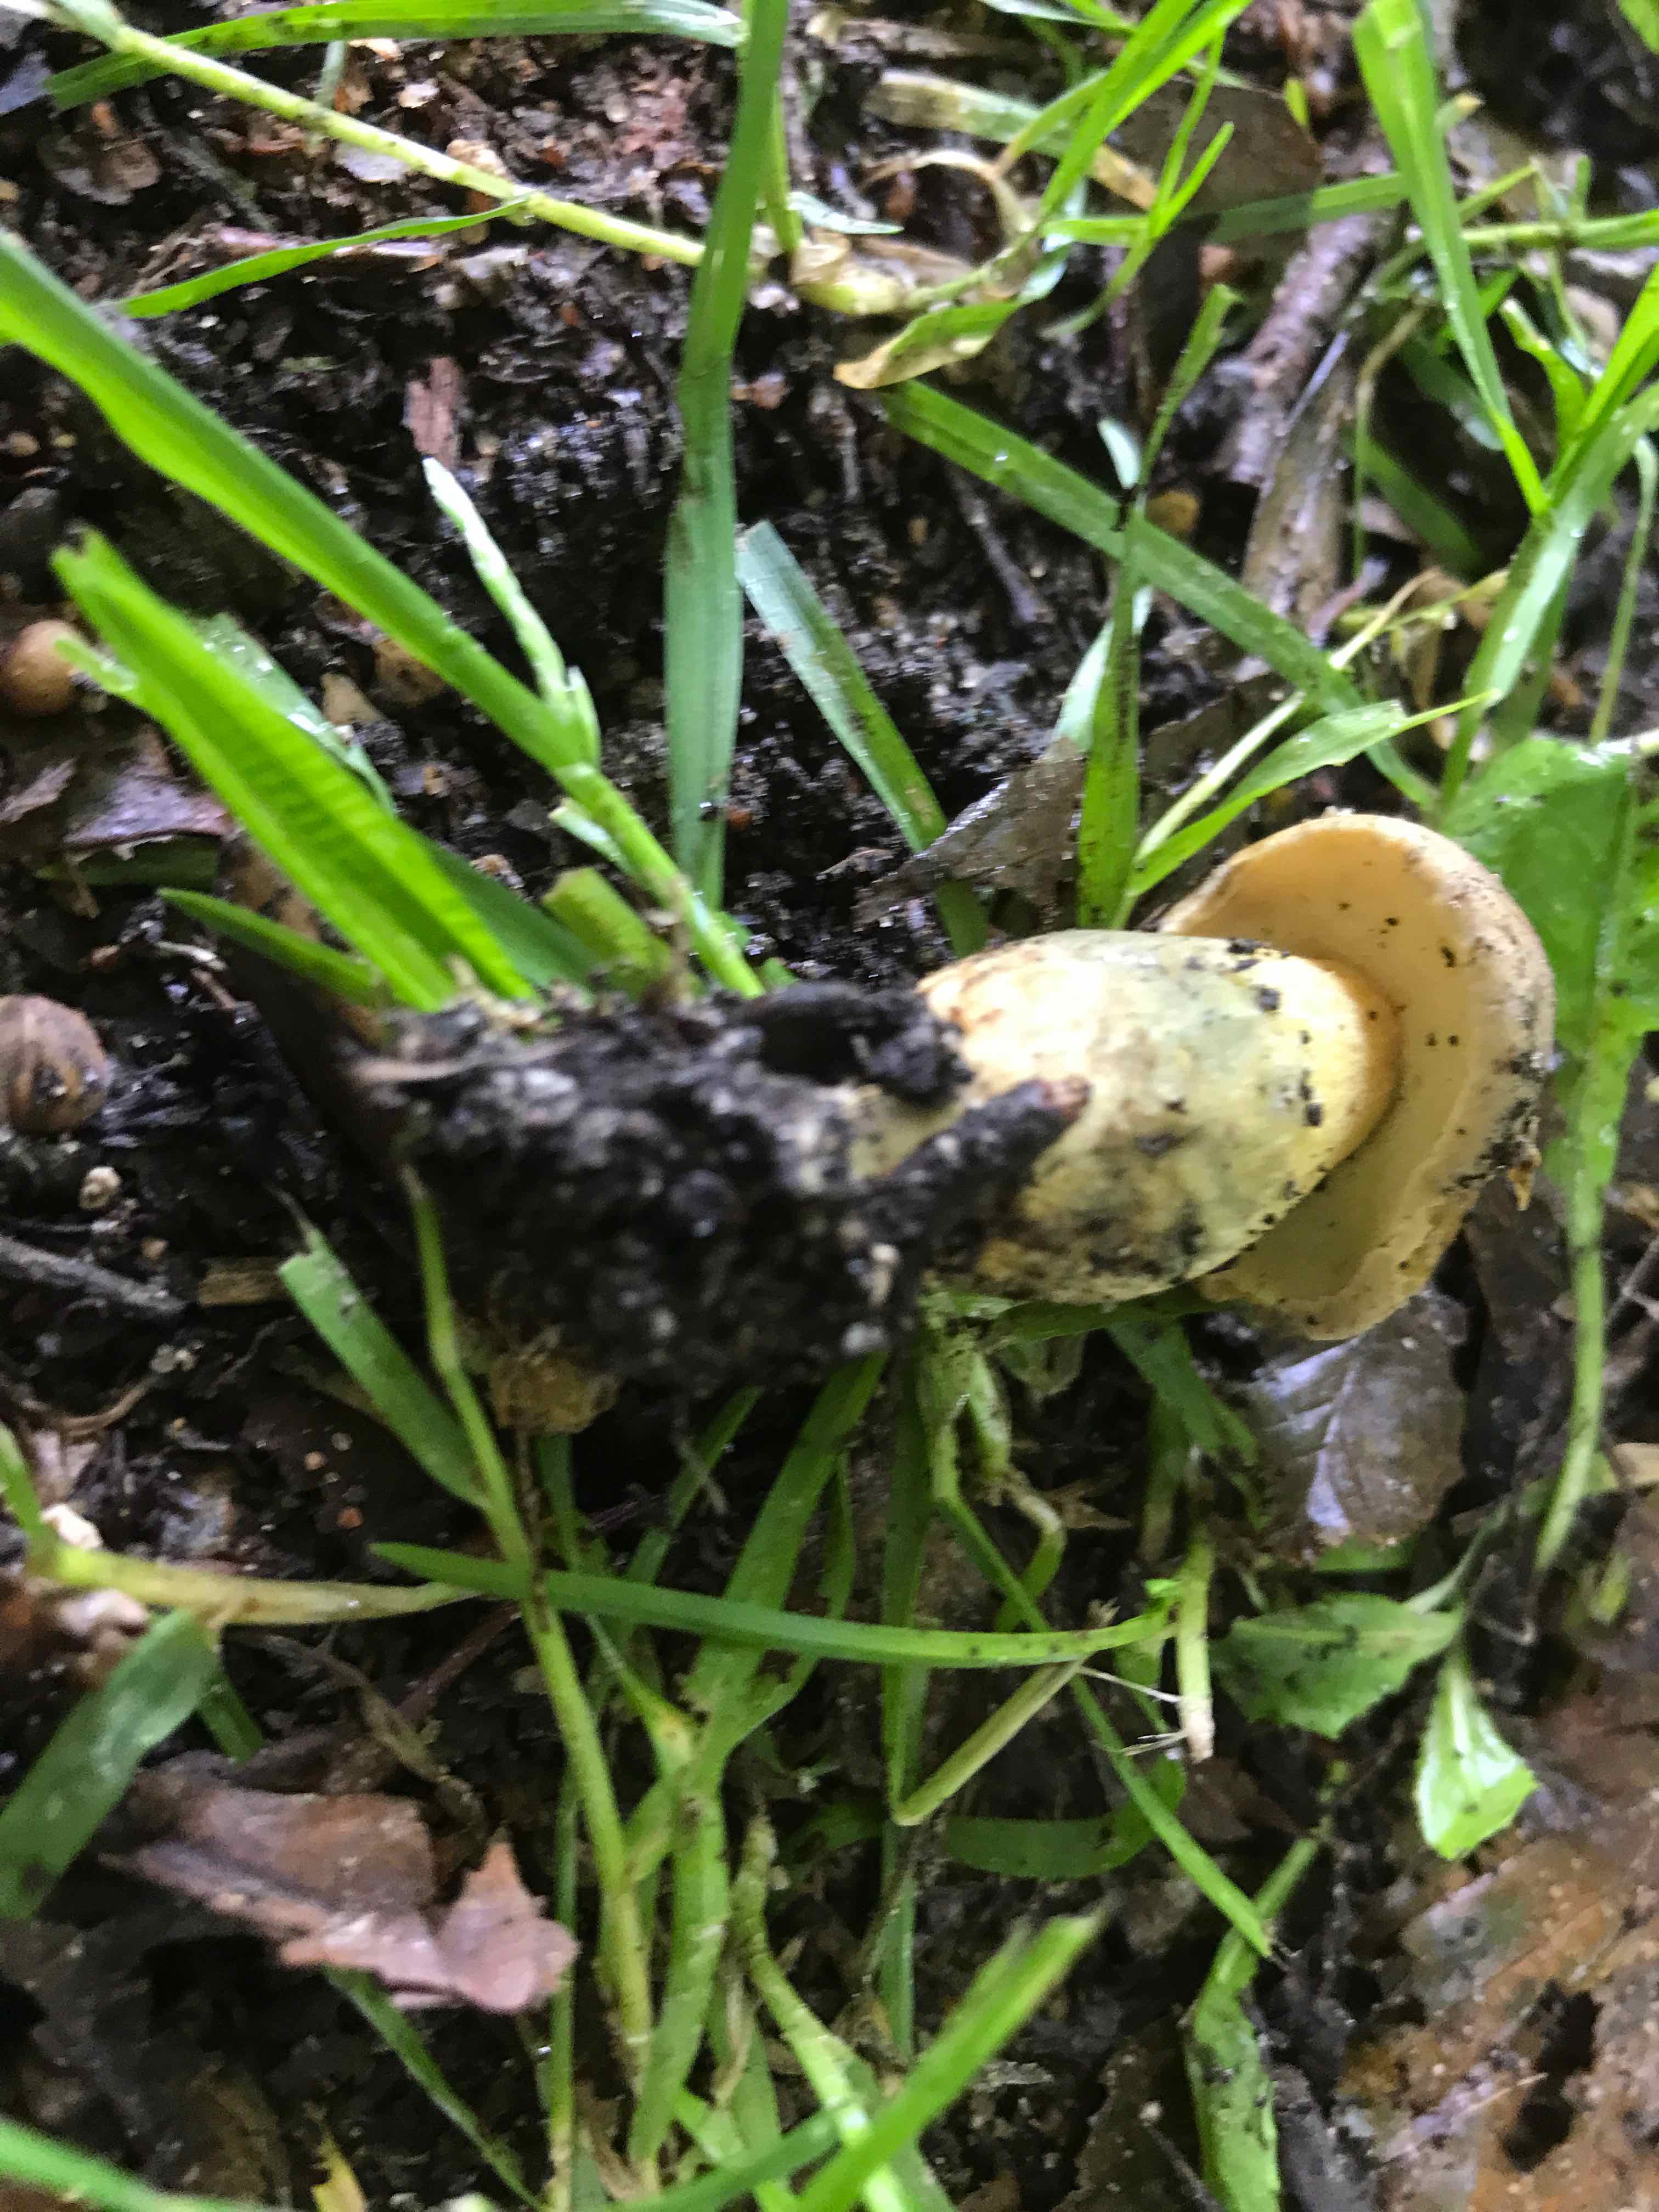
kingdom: Fungi
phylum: Basidiomycota
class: Agaricomycetes
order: Boletales
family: Boletaceae
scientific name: Boletaceae
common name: rørhatfamilien
